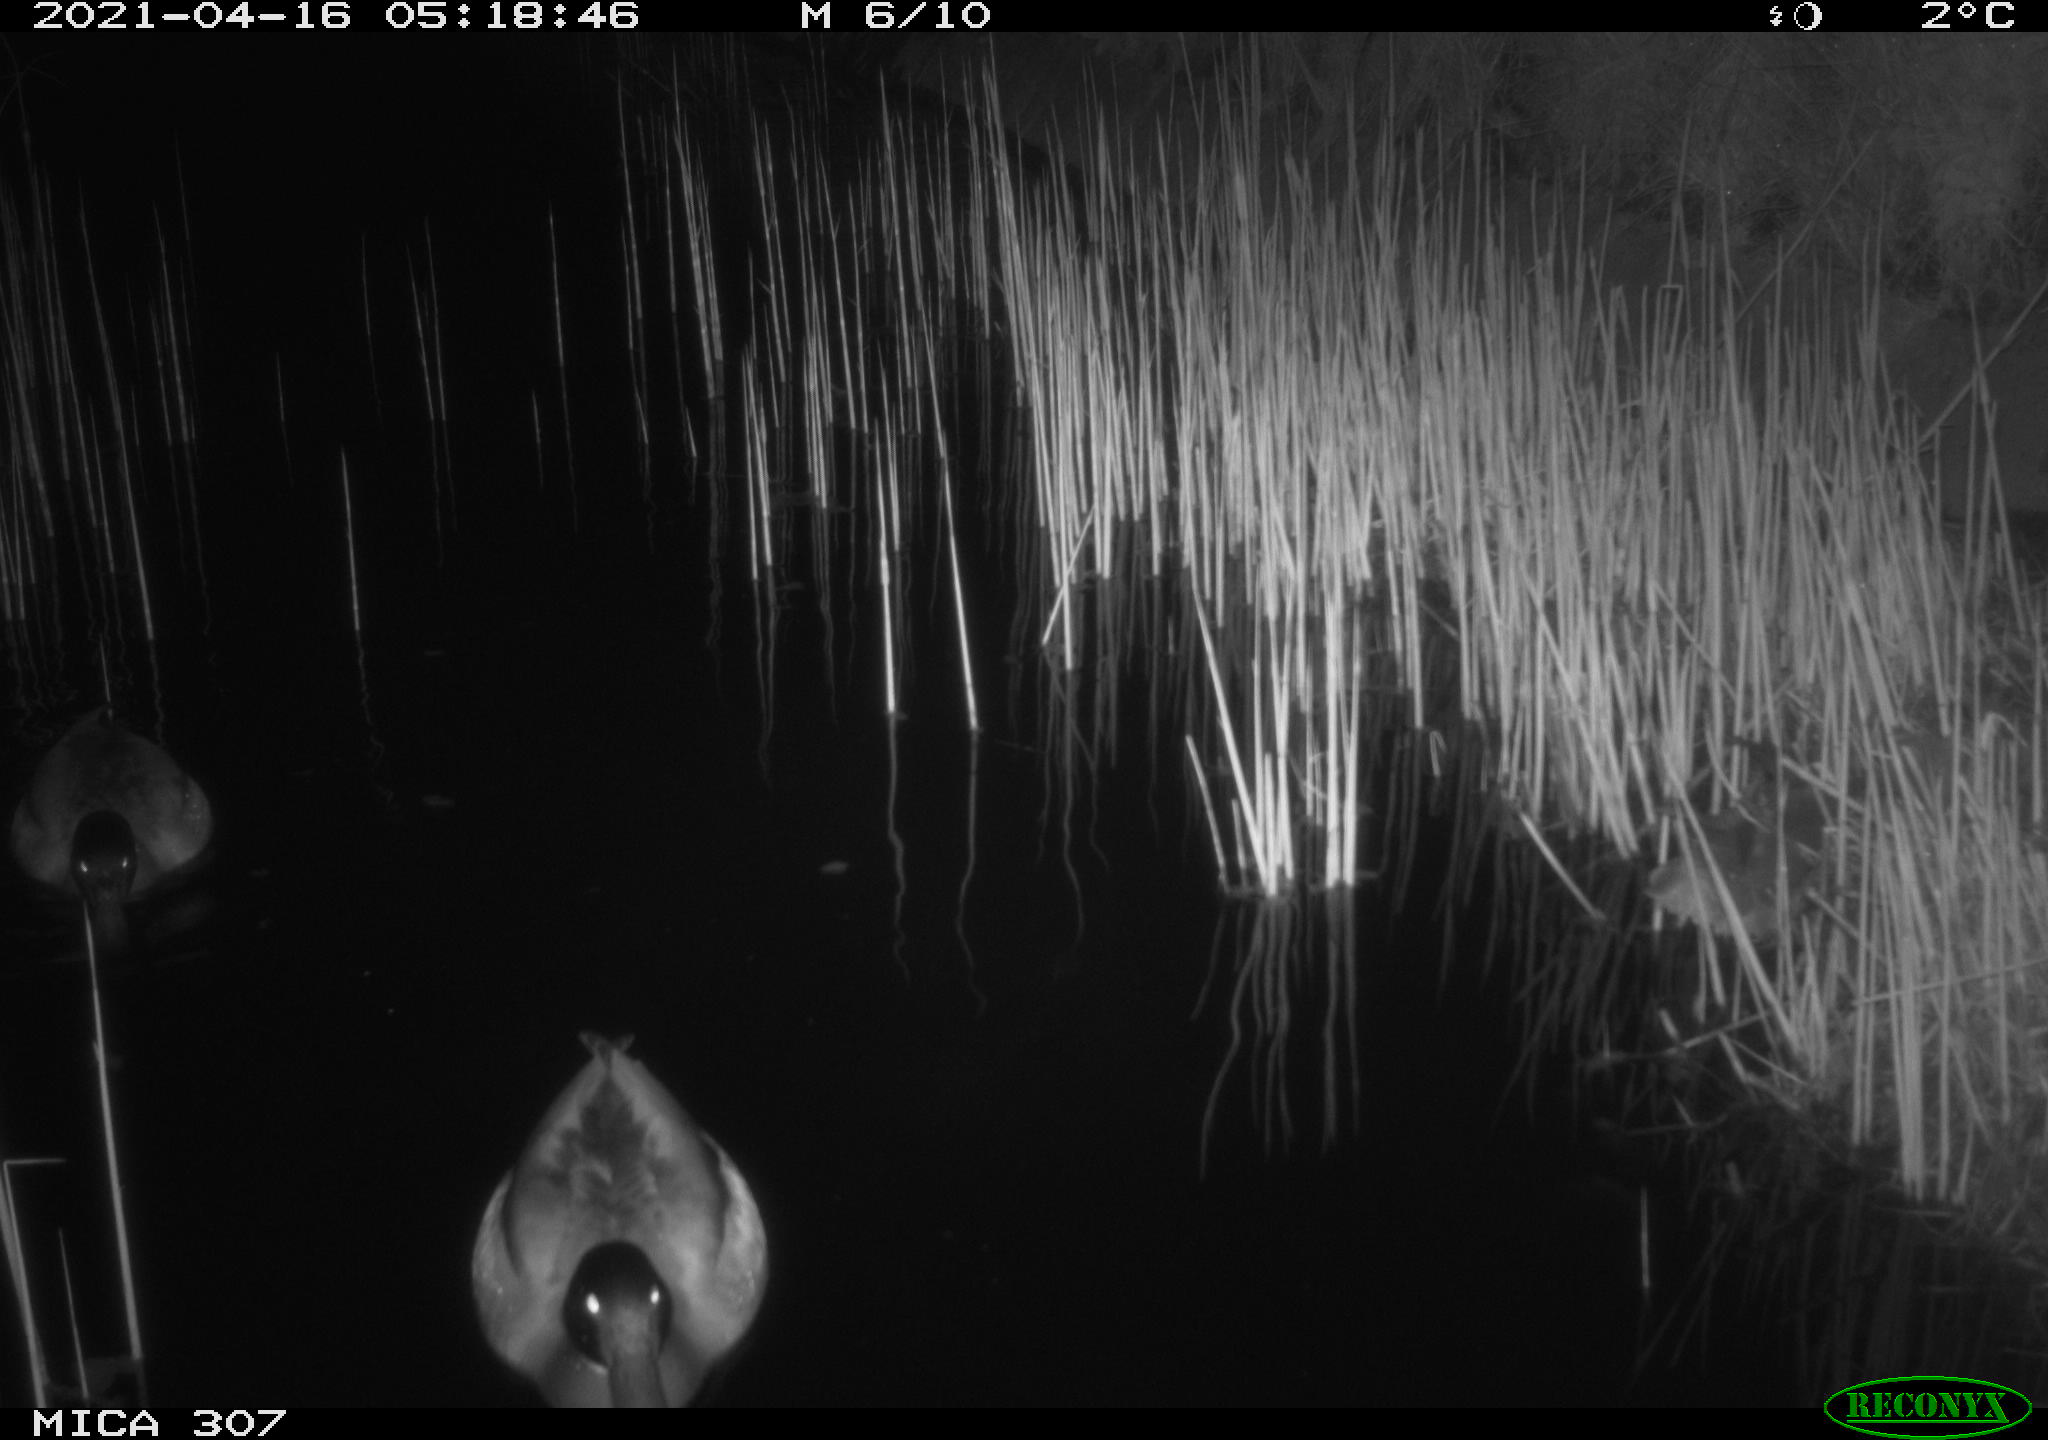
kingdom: Animalia
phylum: Chordata
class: Aves
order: Anseriformes
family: Anatidae
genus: Anas
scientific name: Anas platyrhynchos
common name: Mallard
